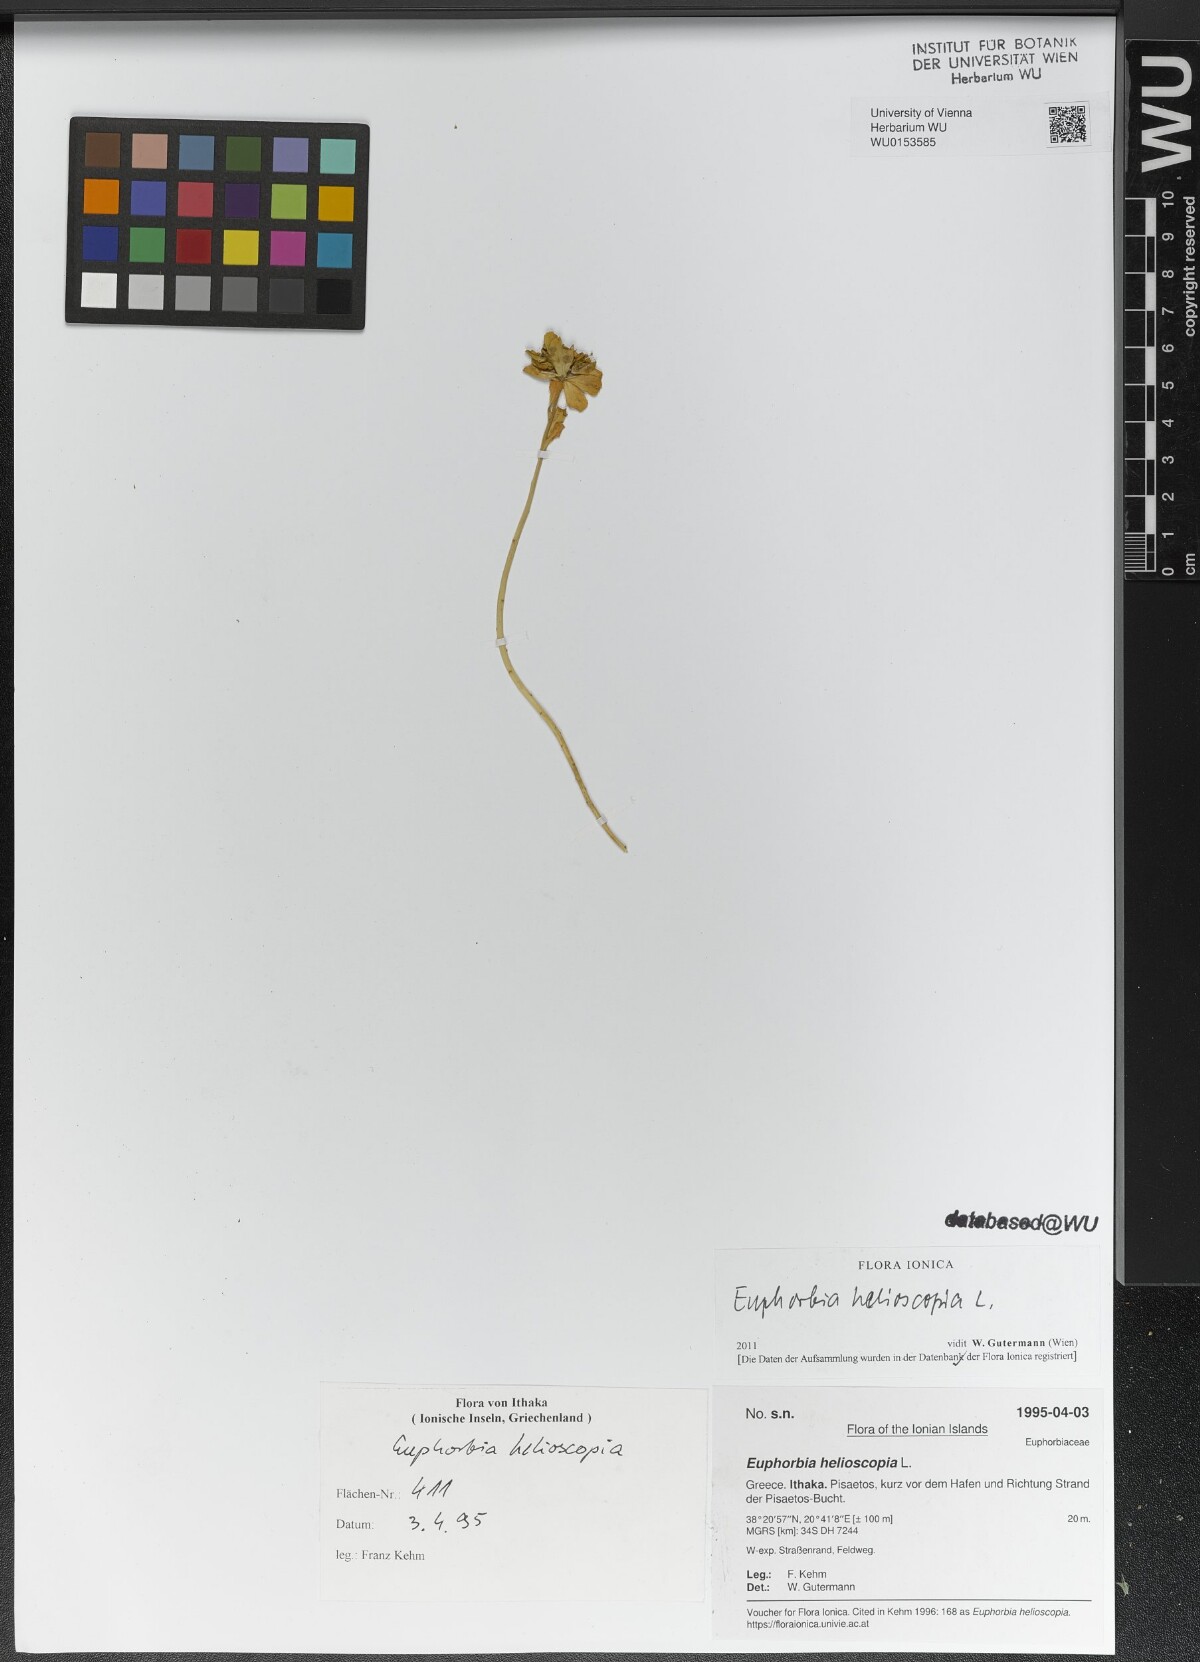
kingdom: Plantae
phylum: Tracheophyta
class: Magnoliopsida
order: Malpighiales
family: Euphorbiaceae
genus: Euphorbia
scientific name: Euphorbia helioscopia
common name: Sun spurge
